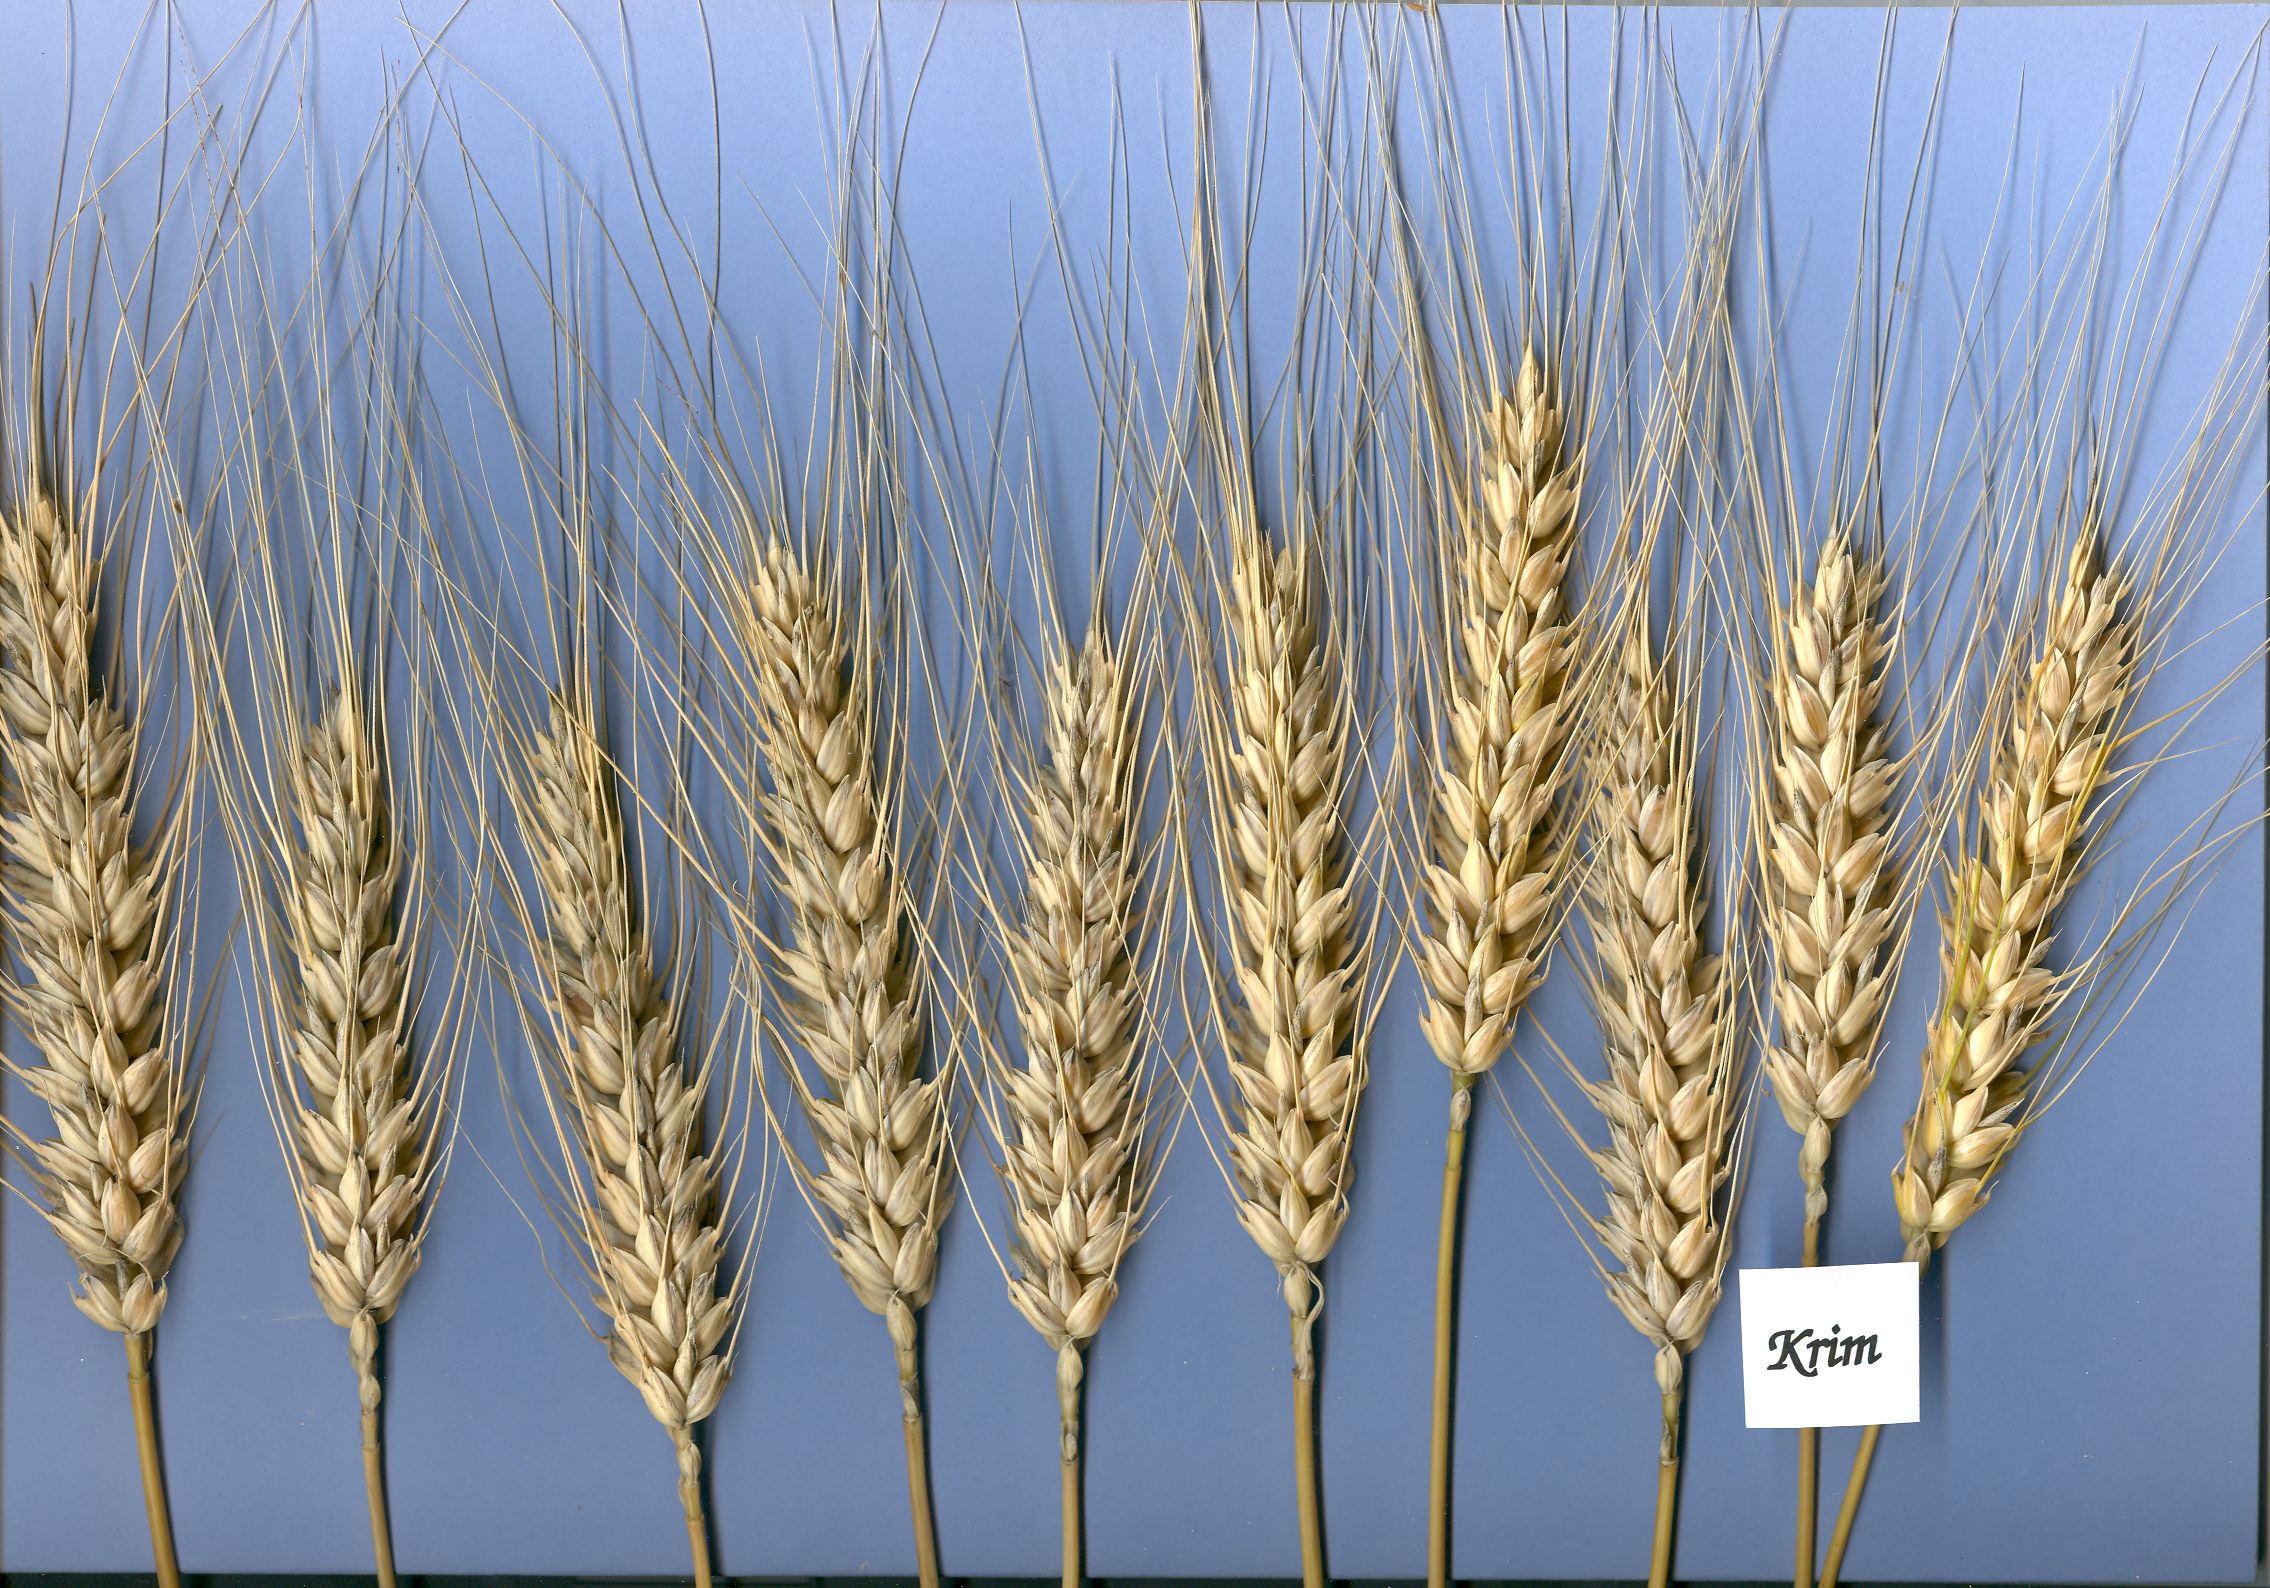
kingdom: Plantae
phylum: Tracheophyta
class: Liliopsida
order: Poales
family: Poaceae
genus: Triticum
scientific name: Triticum aestivum
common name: Common wheat
